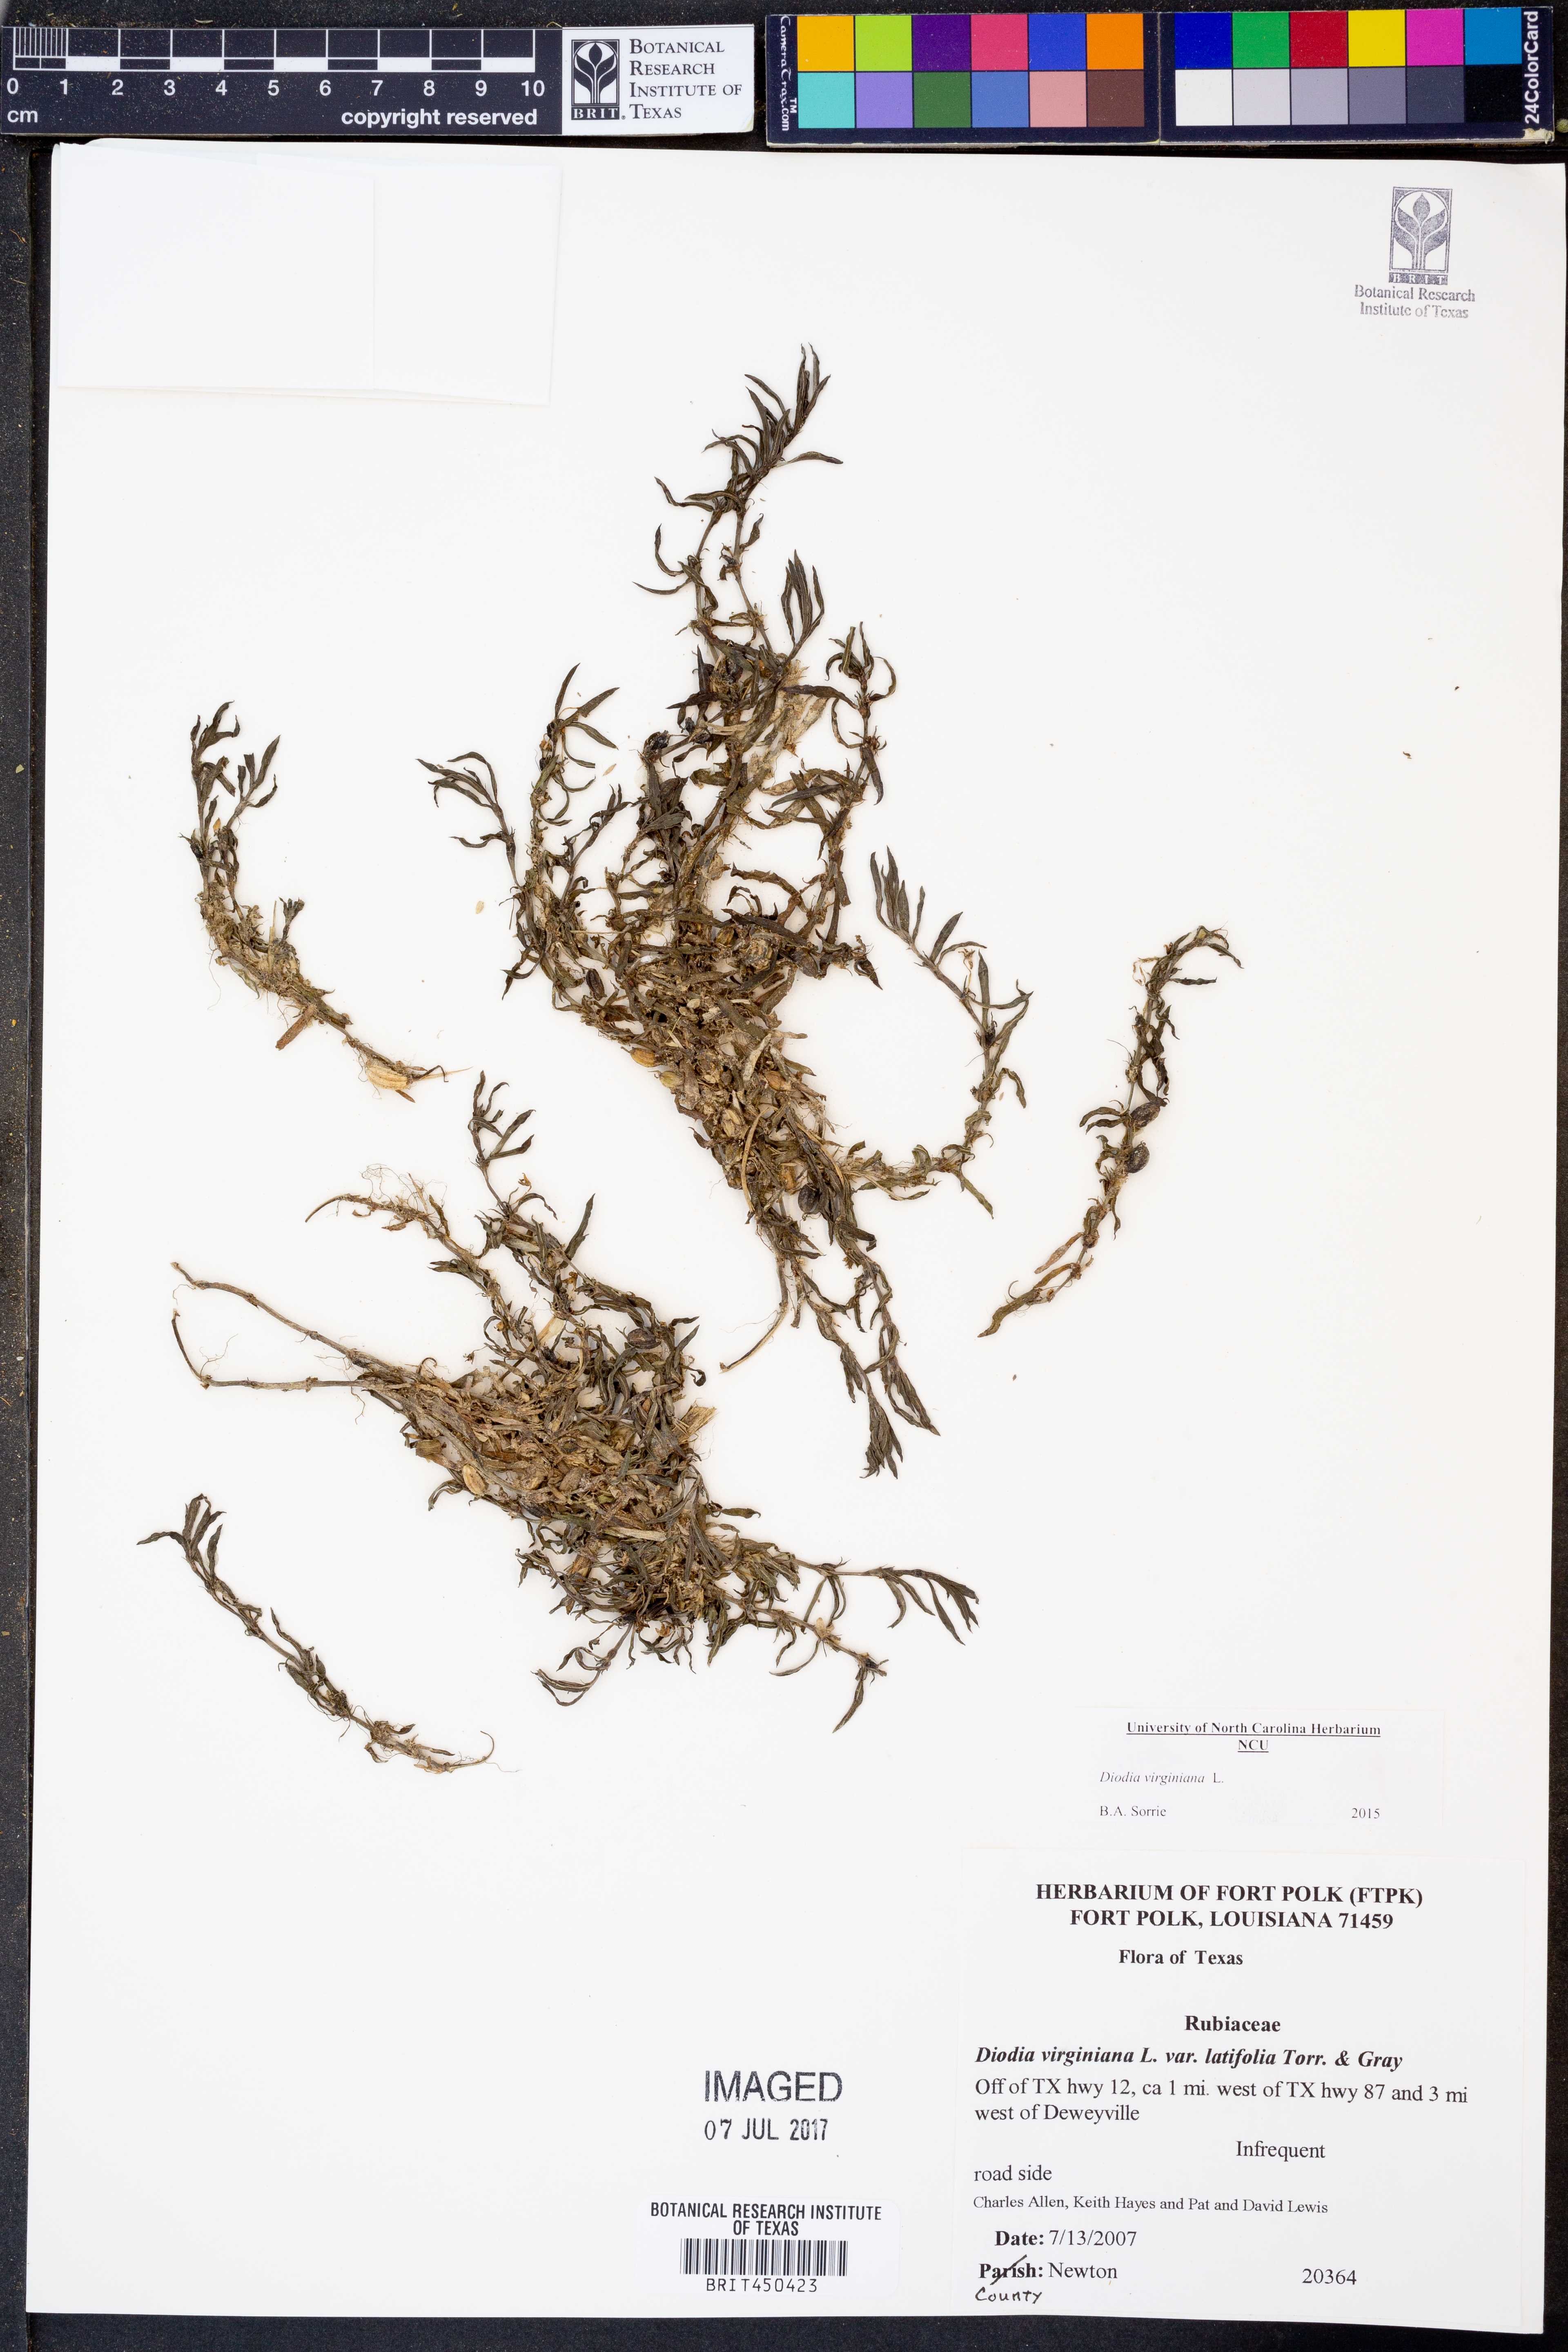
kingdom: Plantae
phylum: Tracheophyta
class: Magnoliopsida
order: Gentianales
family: Rubiaceae
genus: Diodia
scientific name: Diodia virginiana
